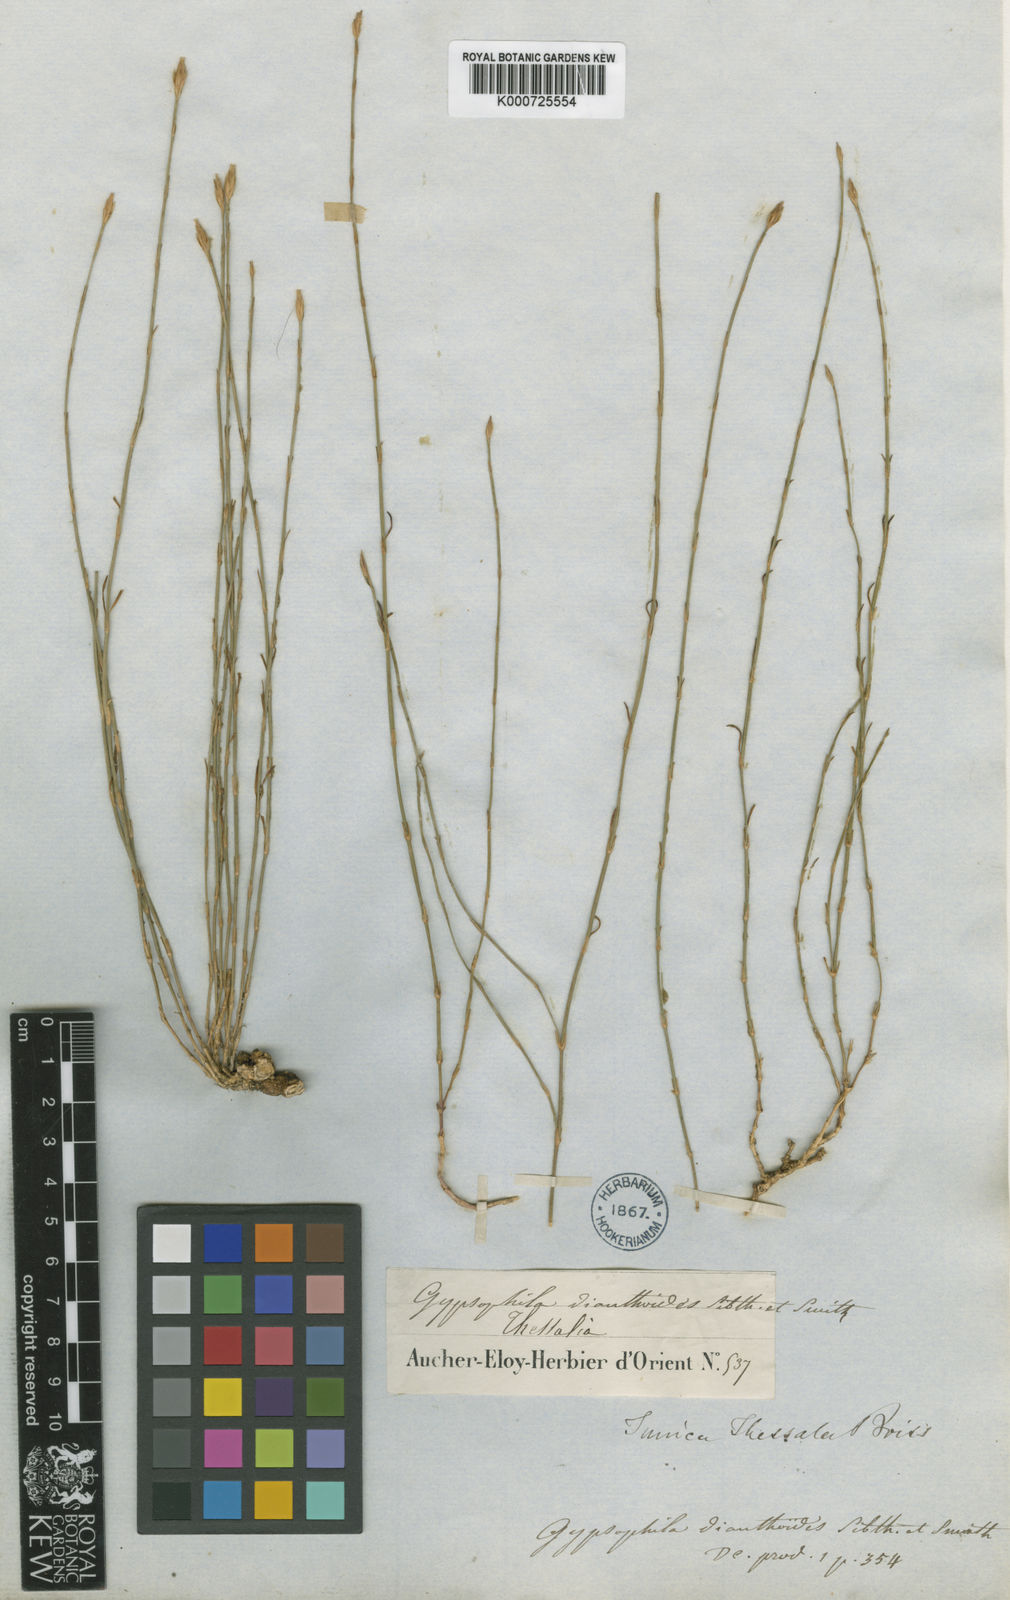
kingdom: Plantae
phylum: Tracheophyta
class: Magnoliopsida
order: Caryophyllales
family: Caryophyllaceae
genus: Petrorhagia
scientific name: Petrorhagia thessala
